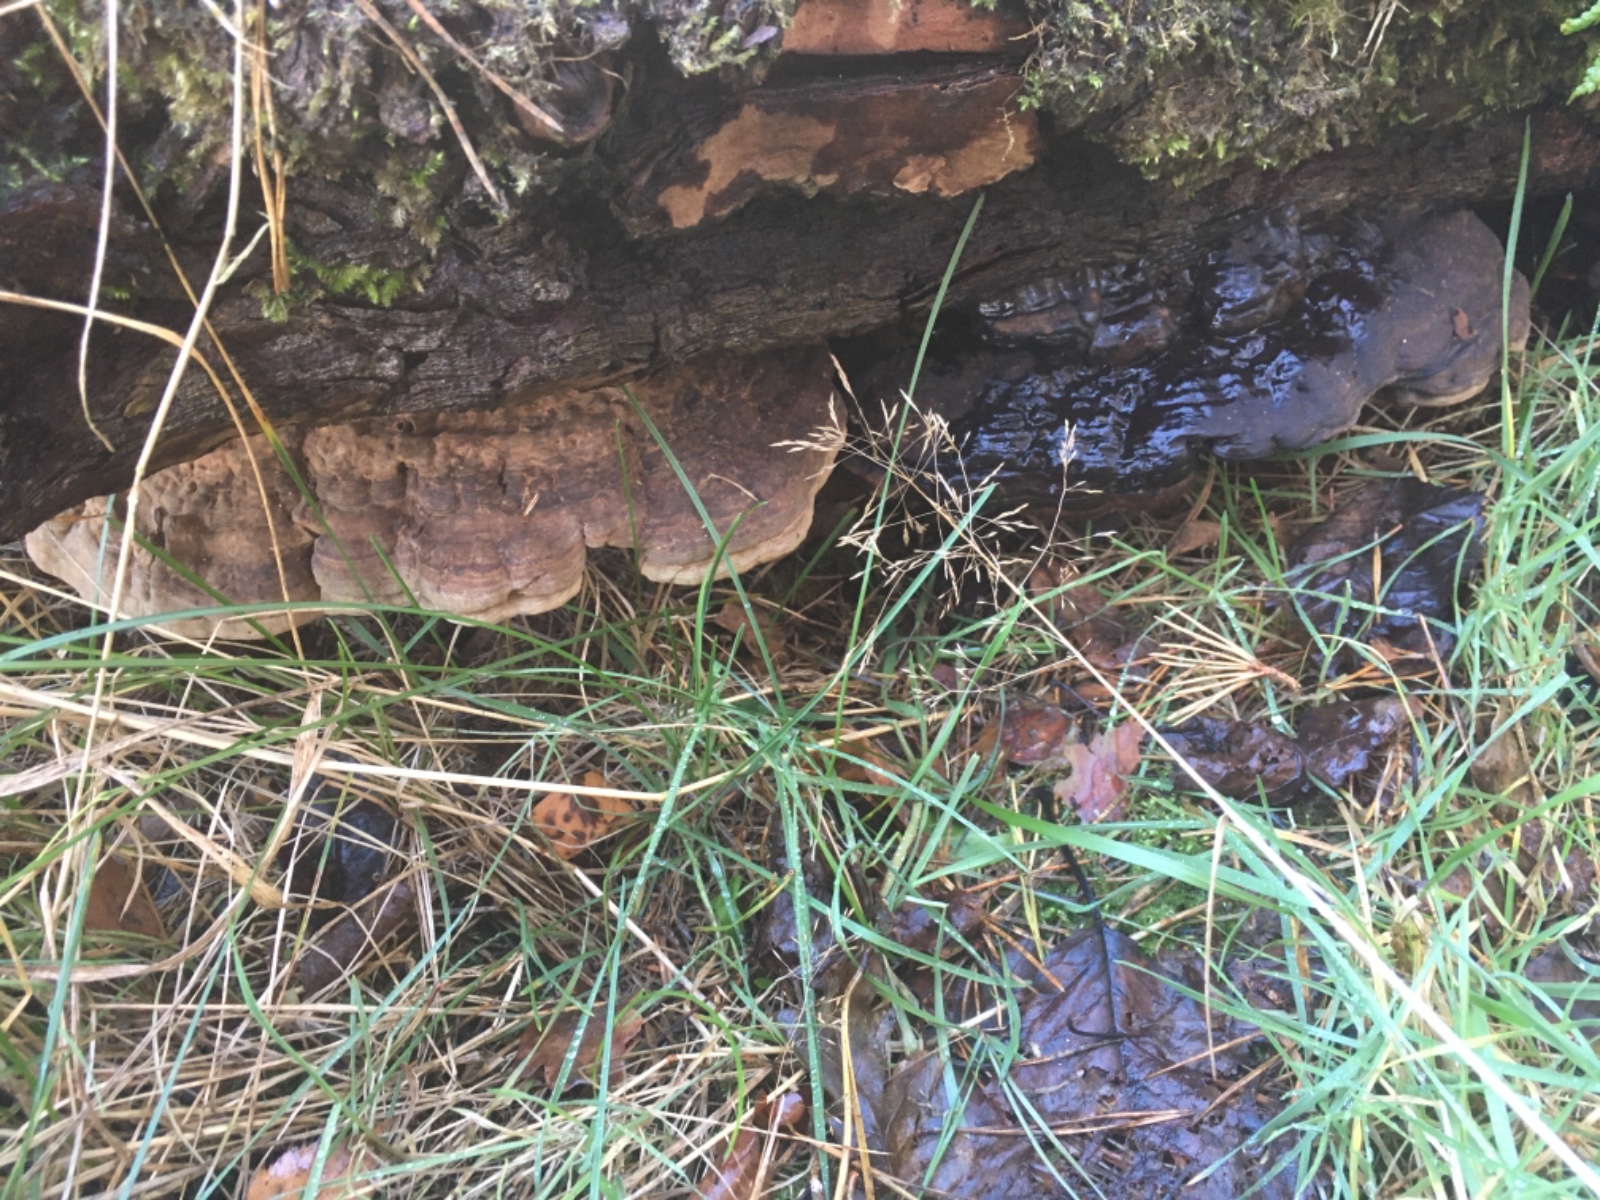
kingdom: Fungi
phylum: Basidiomycota
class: Agaricomycetes
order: Polyporales
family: Polyporaceae
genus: Ganoderma
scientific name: Ganoderma applanatum
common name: flad lakporesvamp
